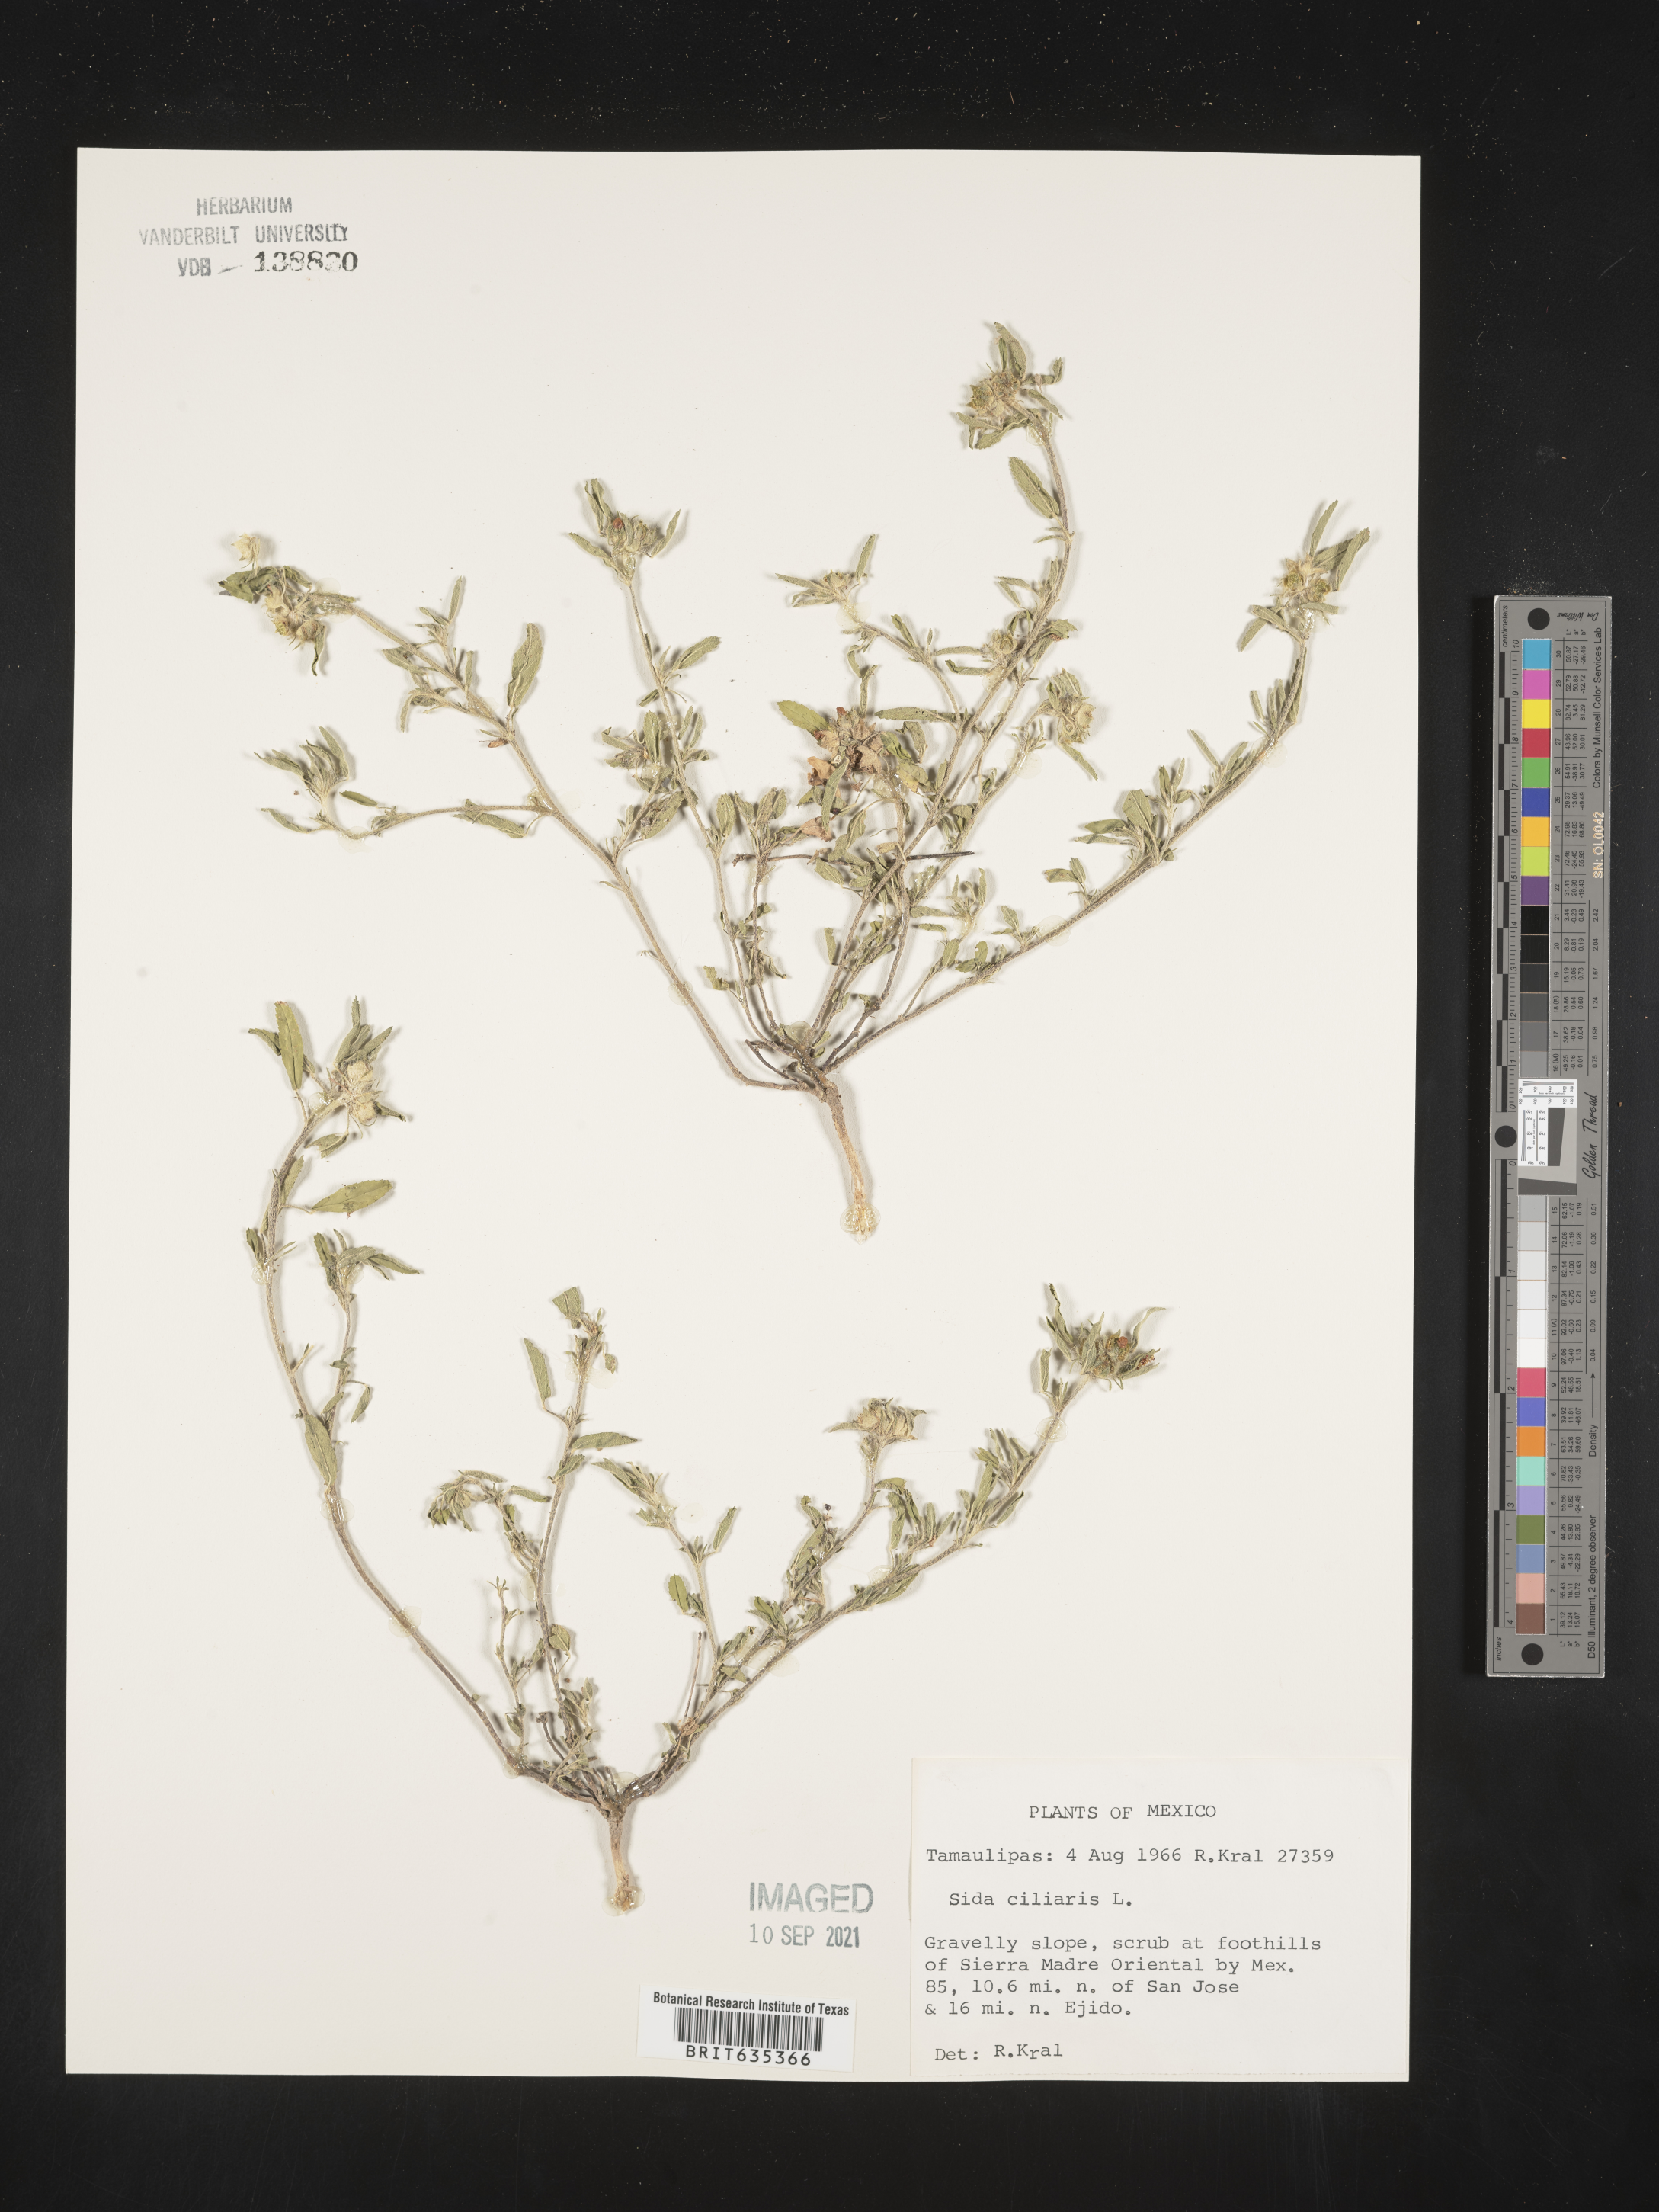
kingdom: Plantae
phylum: Tracheophyta
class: Magnoliopsida
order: Malvales
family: Malvaceae
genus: Sida
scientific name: Sida
